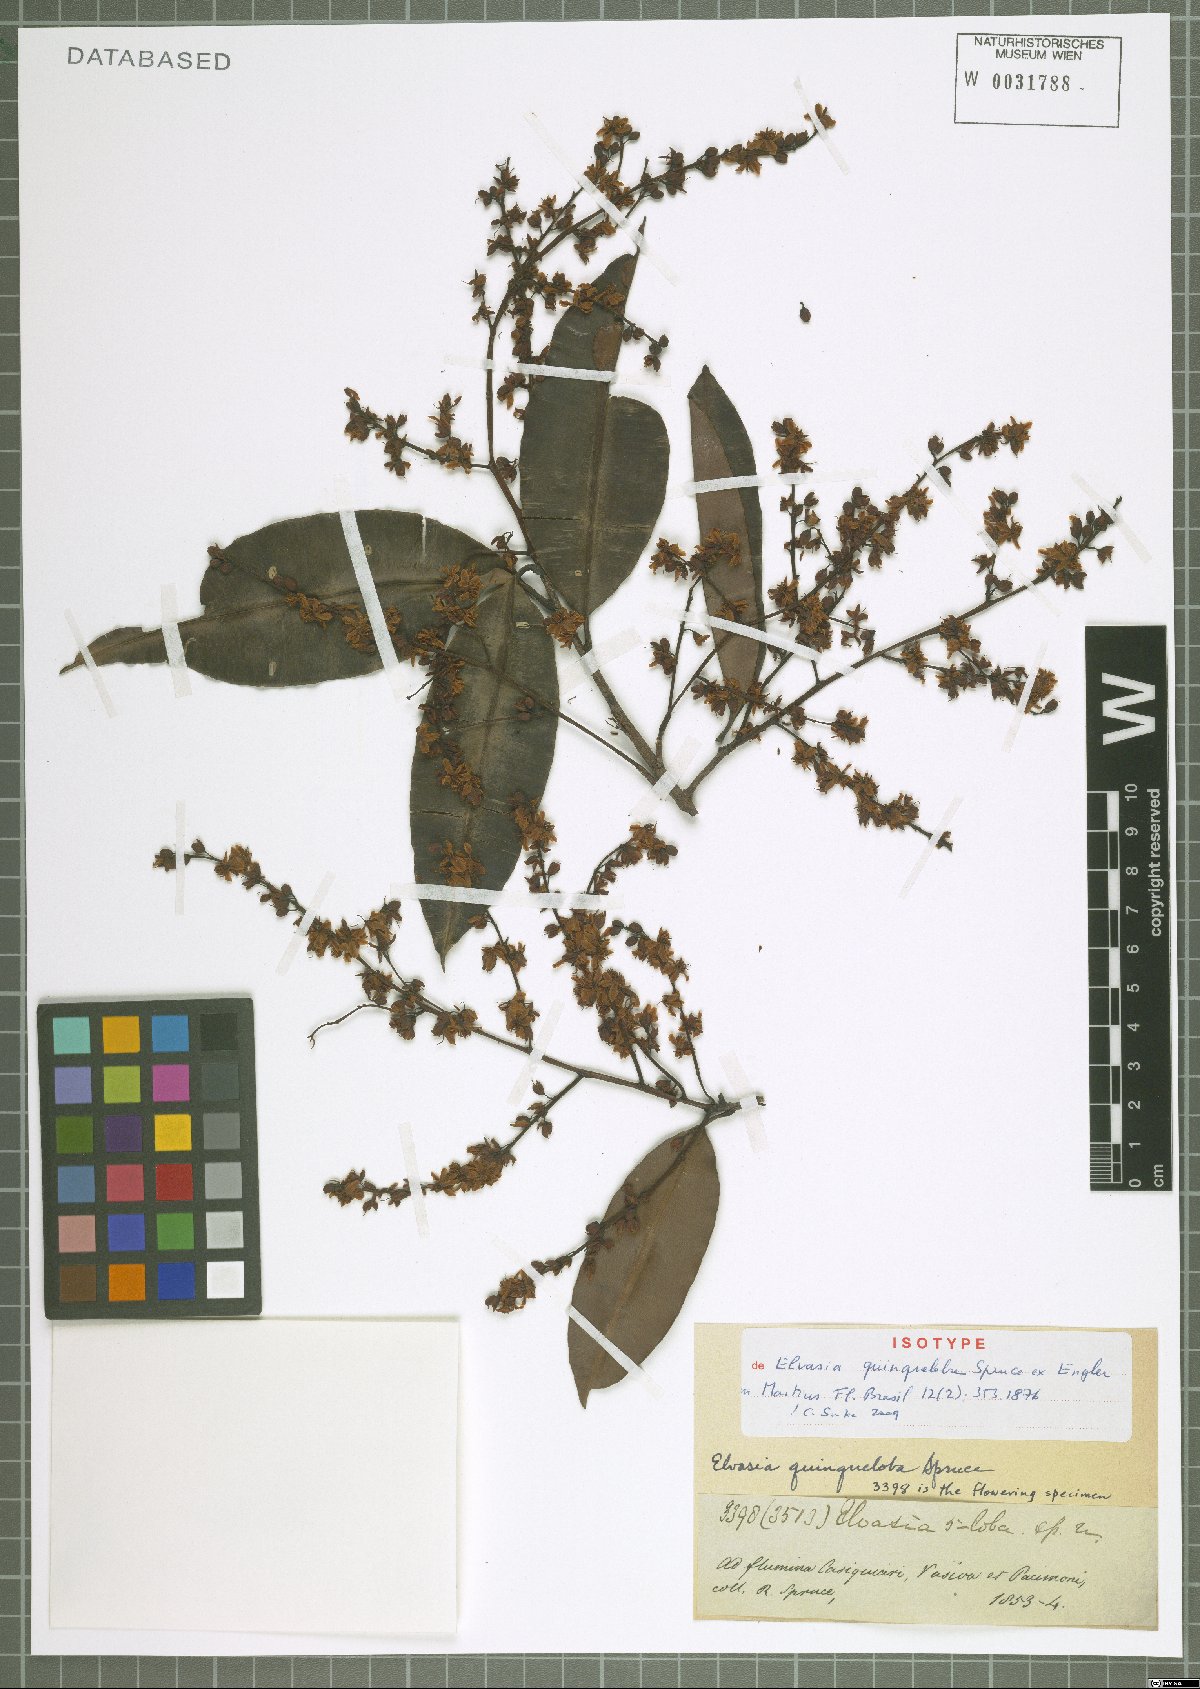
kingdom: Plantae
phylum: Tracheophyta
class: Magnoliopsida
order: Malpighiales
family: Ochnaceae
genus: Elvasia
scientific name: Elvasia quinqueloba
